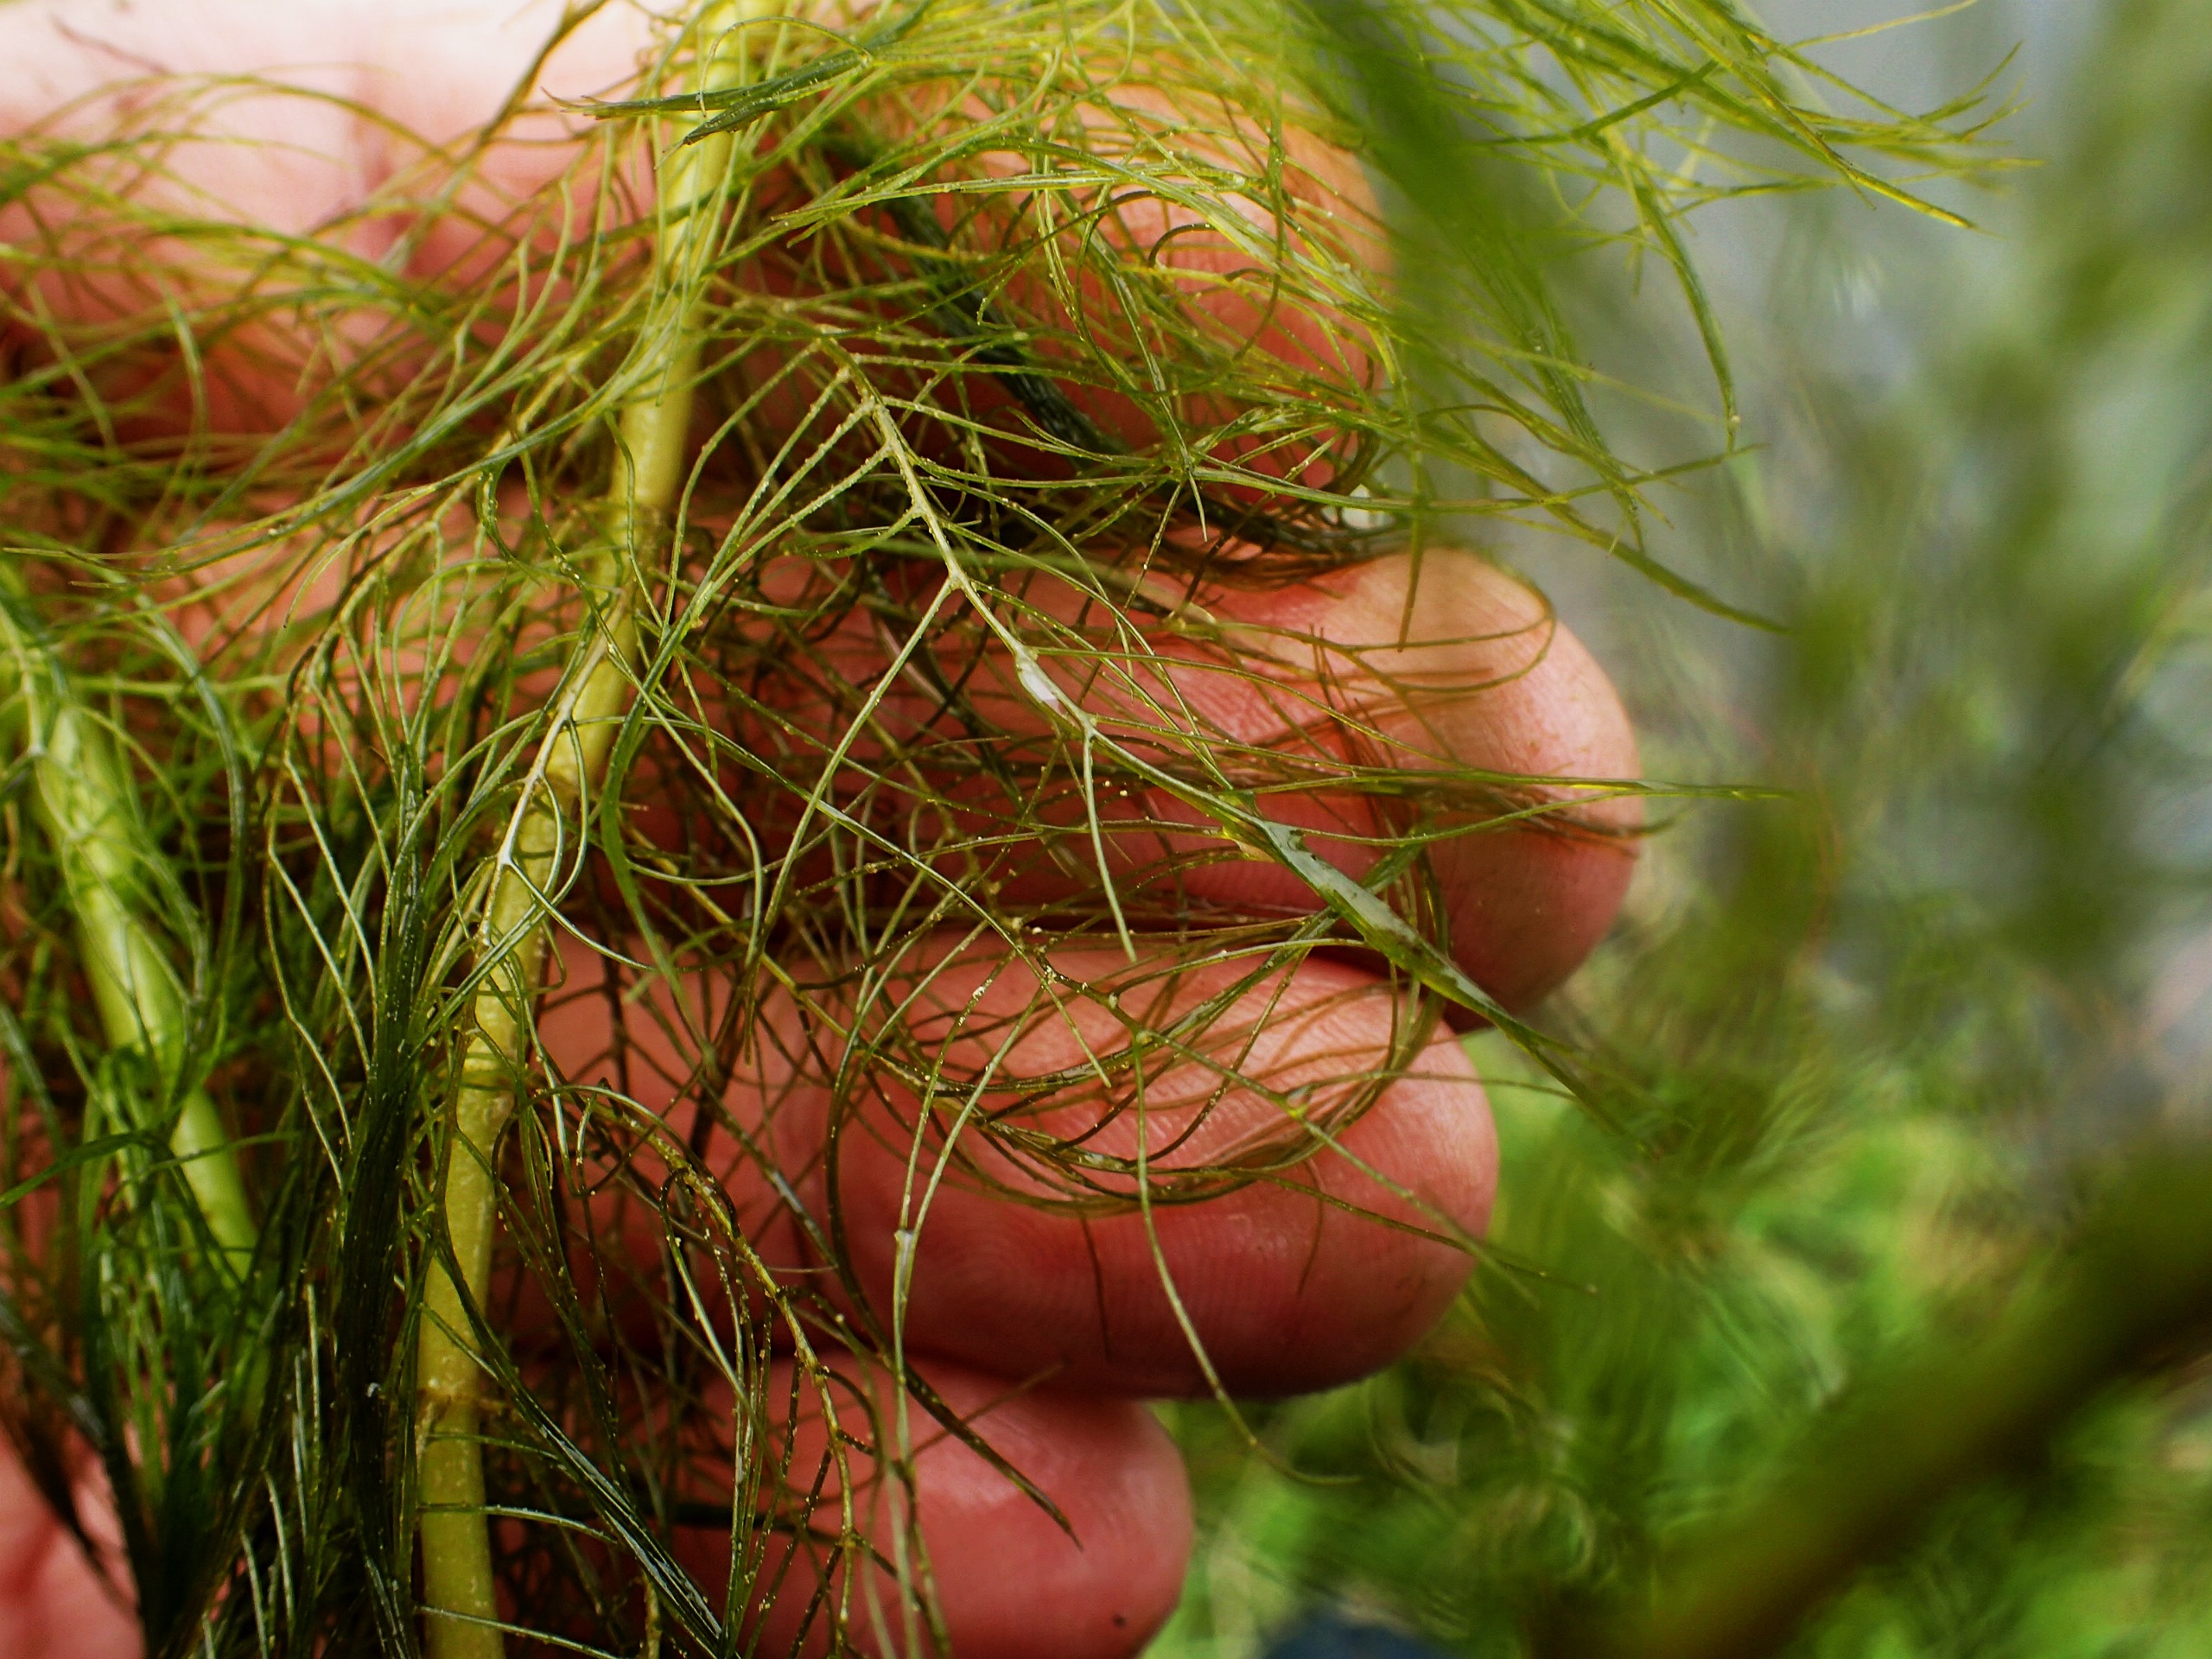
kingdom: Plantae
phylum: Tracheophyta
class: Magnoliopsida
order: Saxifragales
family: Haloragaceae
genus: Myriophyllum
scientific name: Myriophyllum verticillatum
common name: Krans-tusindblad
